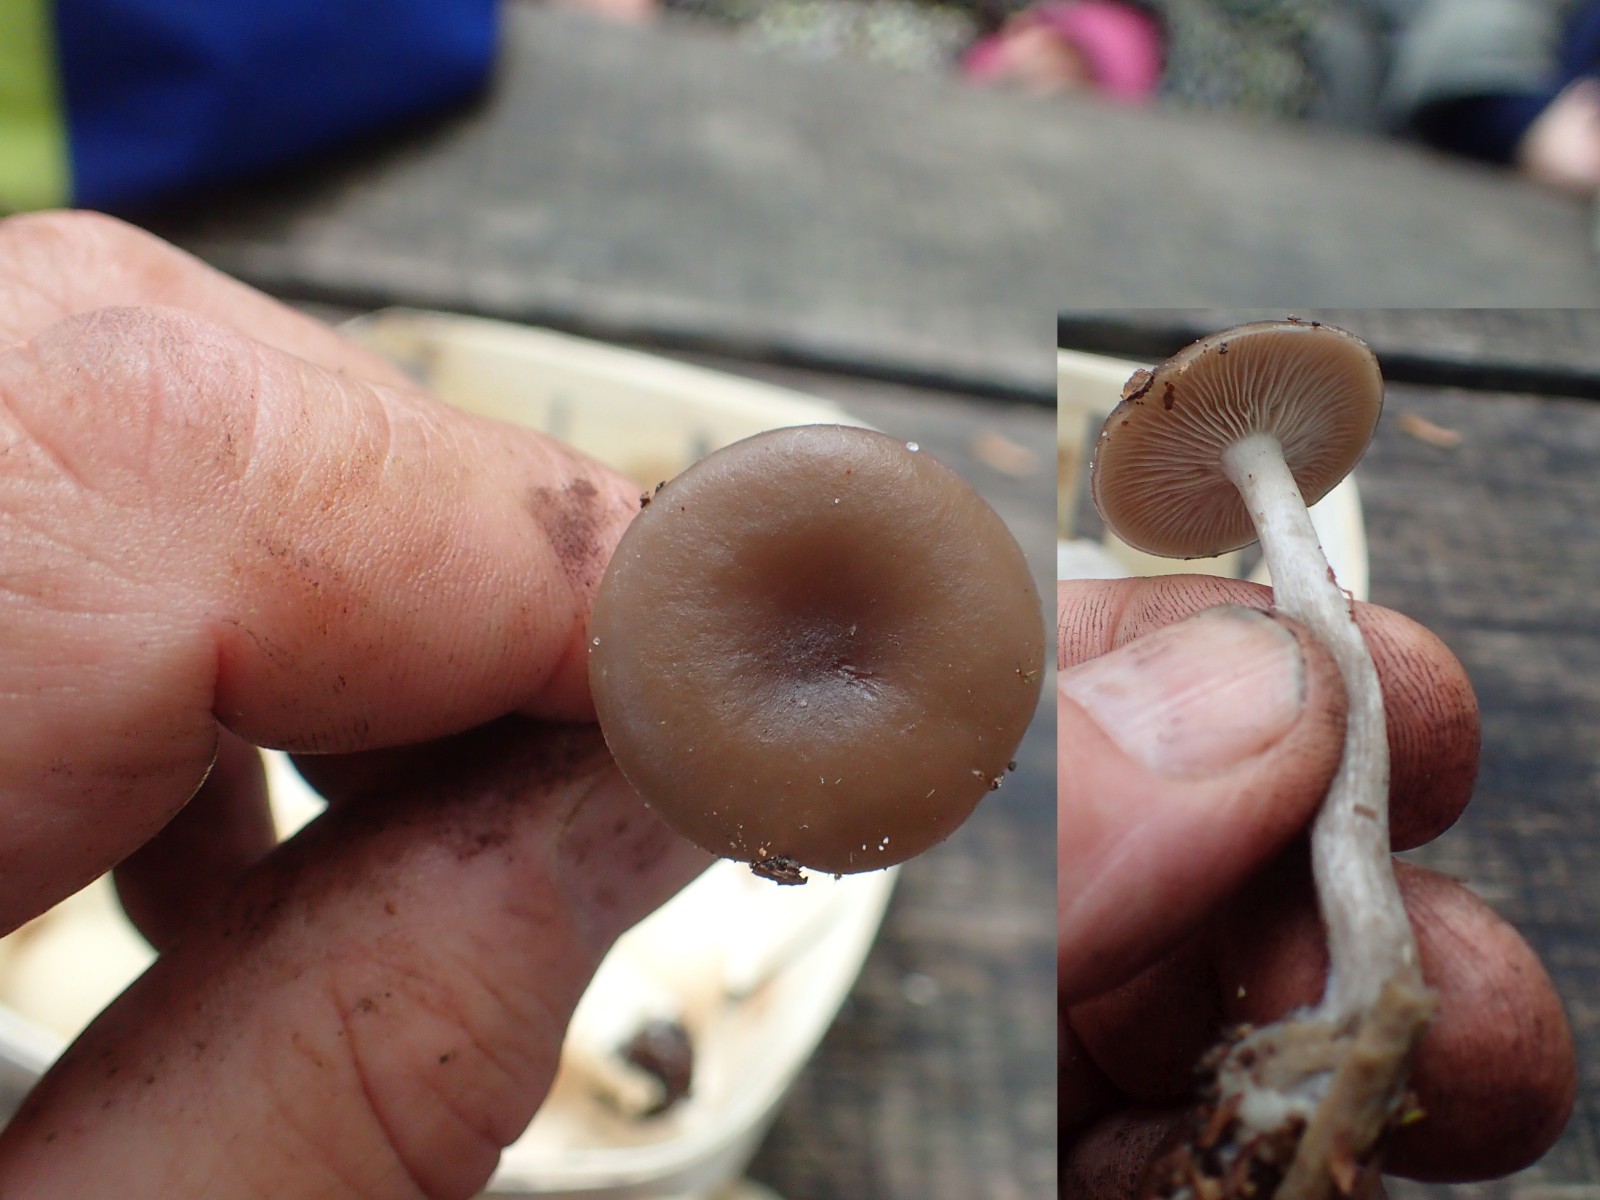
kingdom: Fungi
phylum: Basidiomycota
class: Agaricomycetes
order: Agaricales
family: Tricholomataceae
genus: Clitocybe
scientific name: Clitocybe
